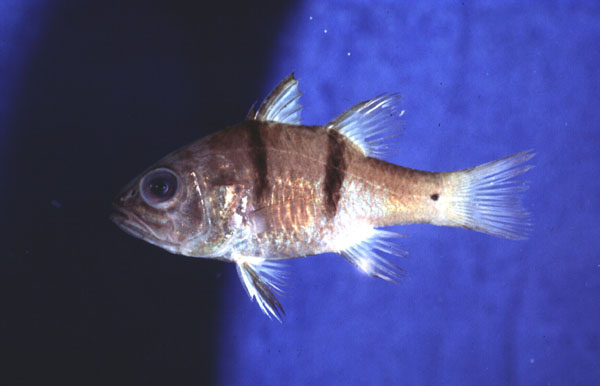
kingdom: Animalia
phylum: Chordata
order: Perciformes
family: Apogonidae
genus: Apogonichthyoides
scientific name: Apogonichthyoides pseudotaeniatus
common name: Doublebar cardinalfish
